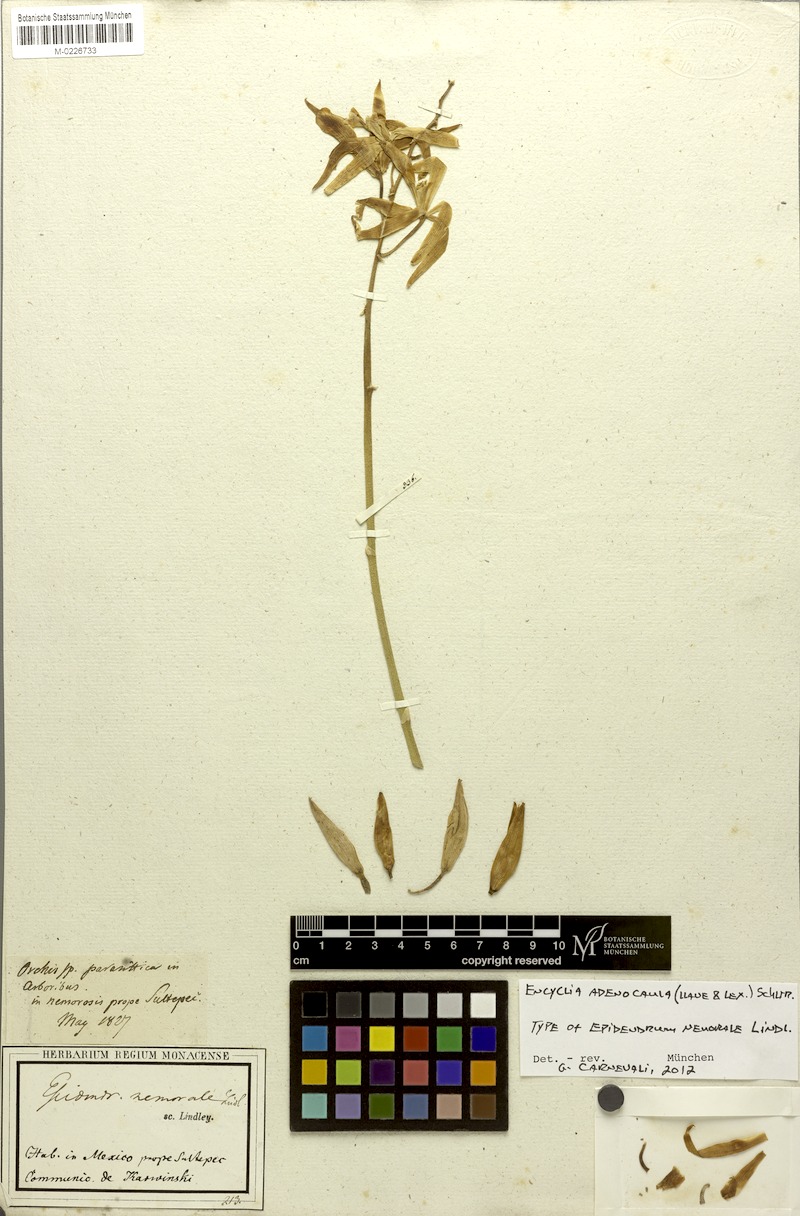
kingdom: Plantae
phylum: Tracheophyta
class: Liliopsida
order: Asparagales
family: Orchidaceae
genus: Encyclia
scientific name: Encyclia adenocaula
